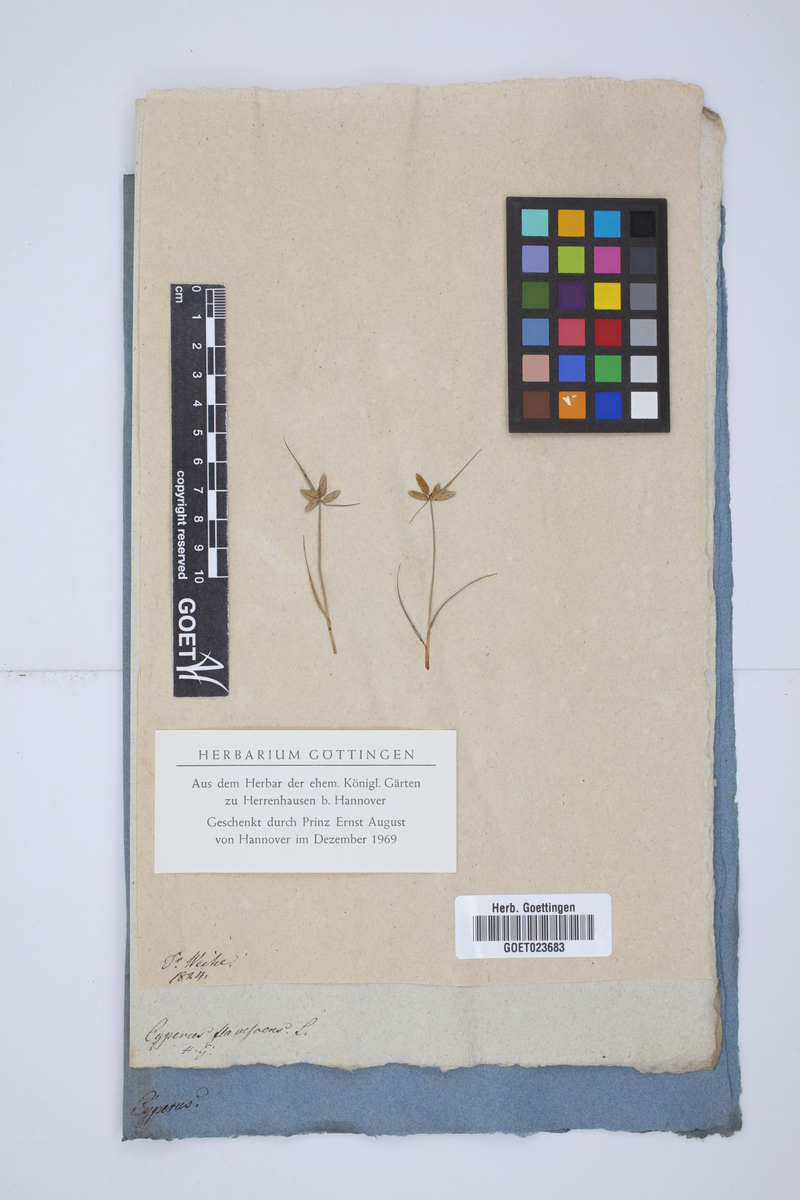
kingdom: Plantae
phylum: Tracheophyta
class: Liliopsida
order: Poales
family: Cyperaceae
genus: Cyperus
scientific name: Cyperus flavescens
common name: Yellow galingale
